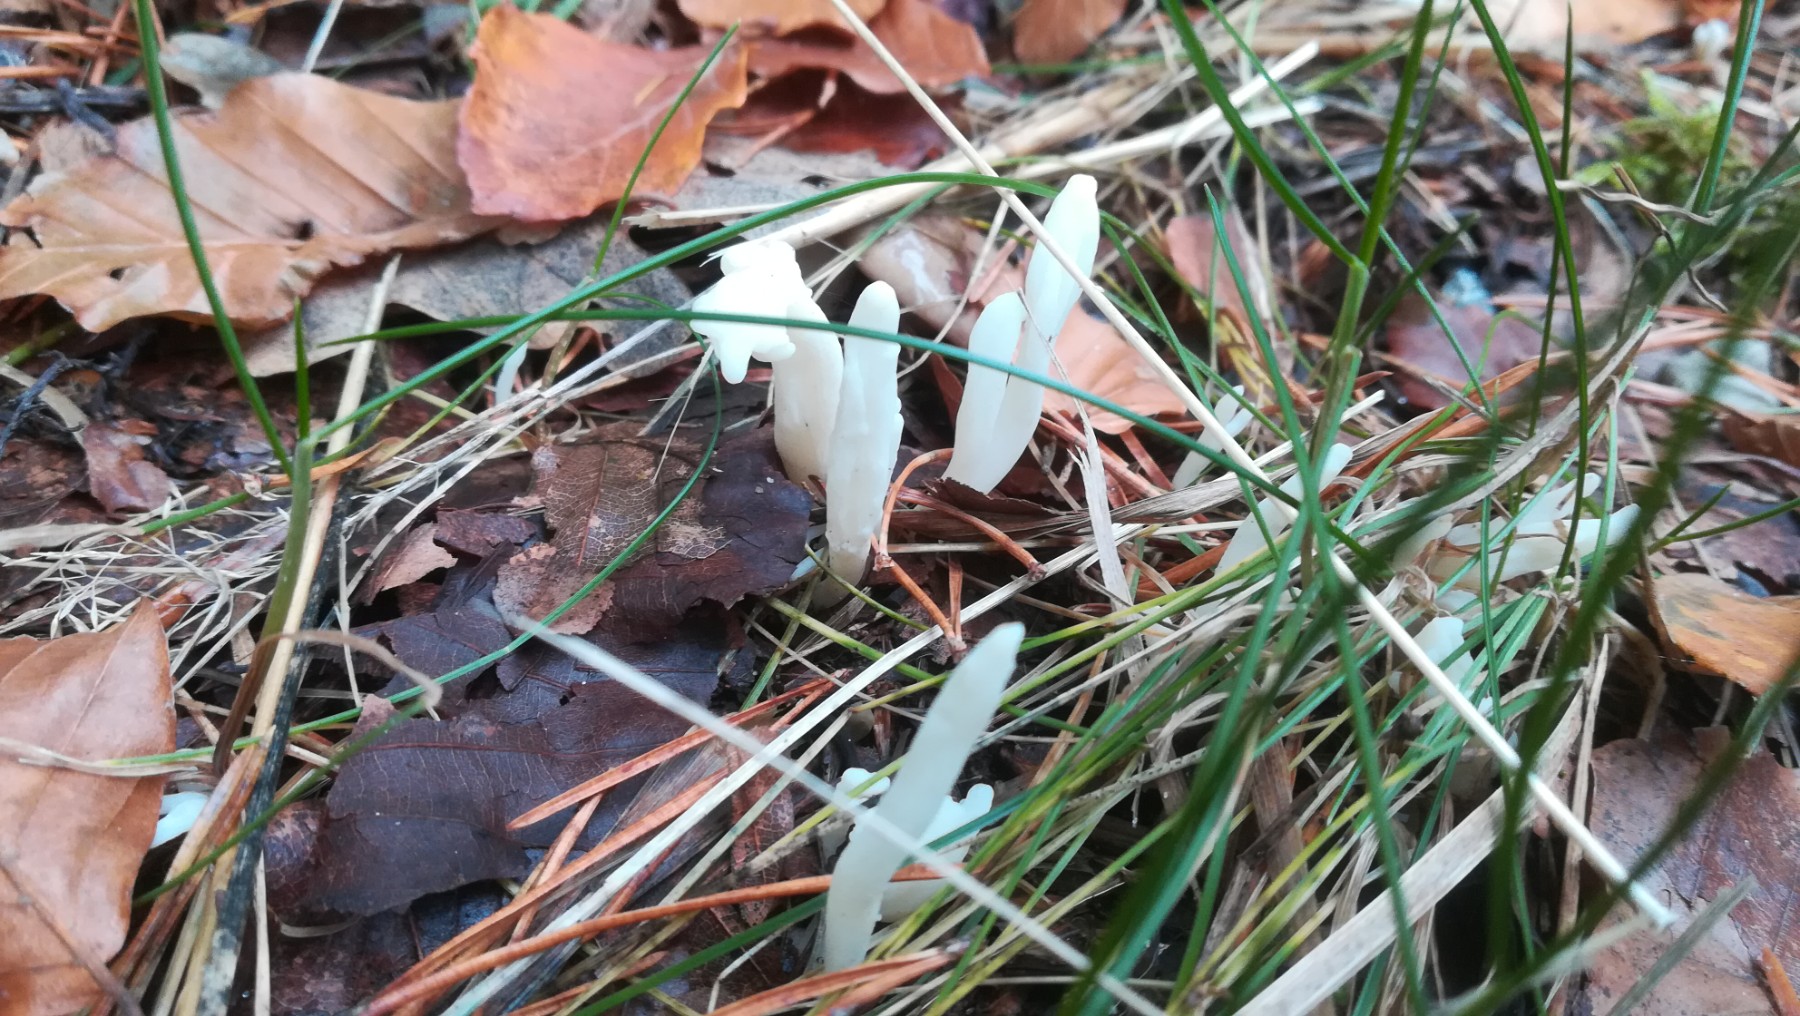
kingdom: Fungi
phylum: Basidiomycota
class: Agaricomycetes
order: Agaricales
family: Clavariaceae
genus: Clavaria
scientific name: Clavaria falcata
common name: hvid køllesvamp
